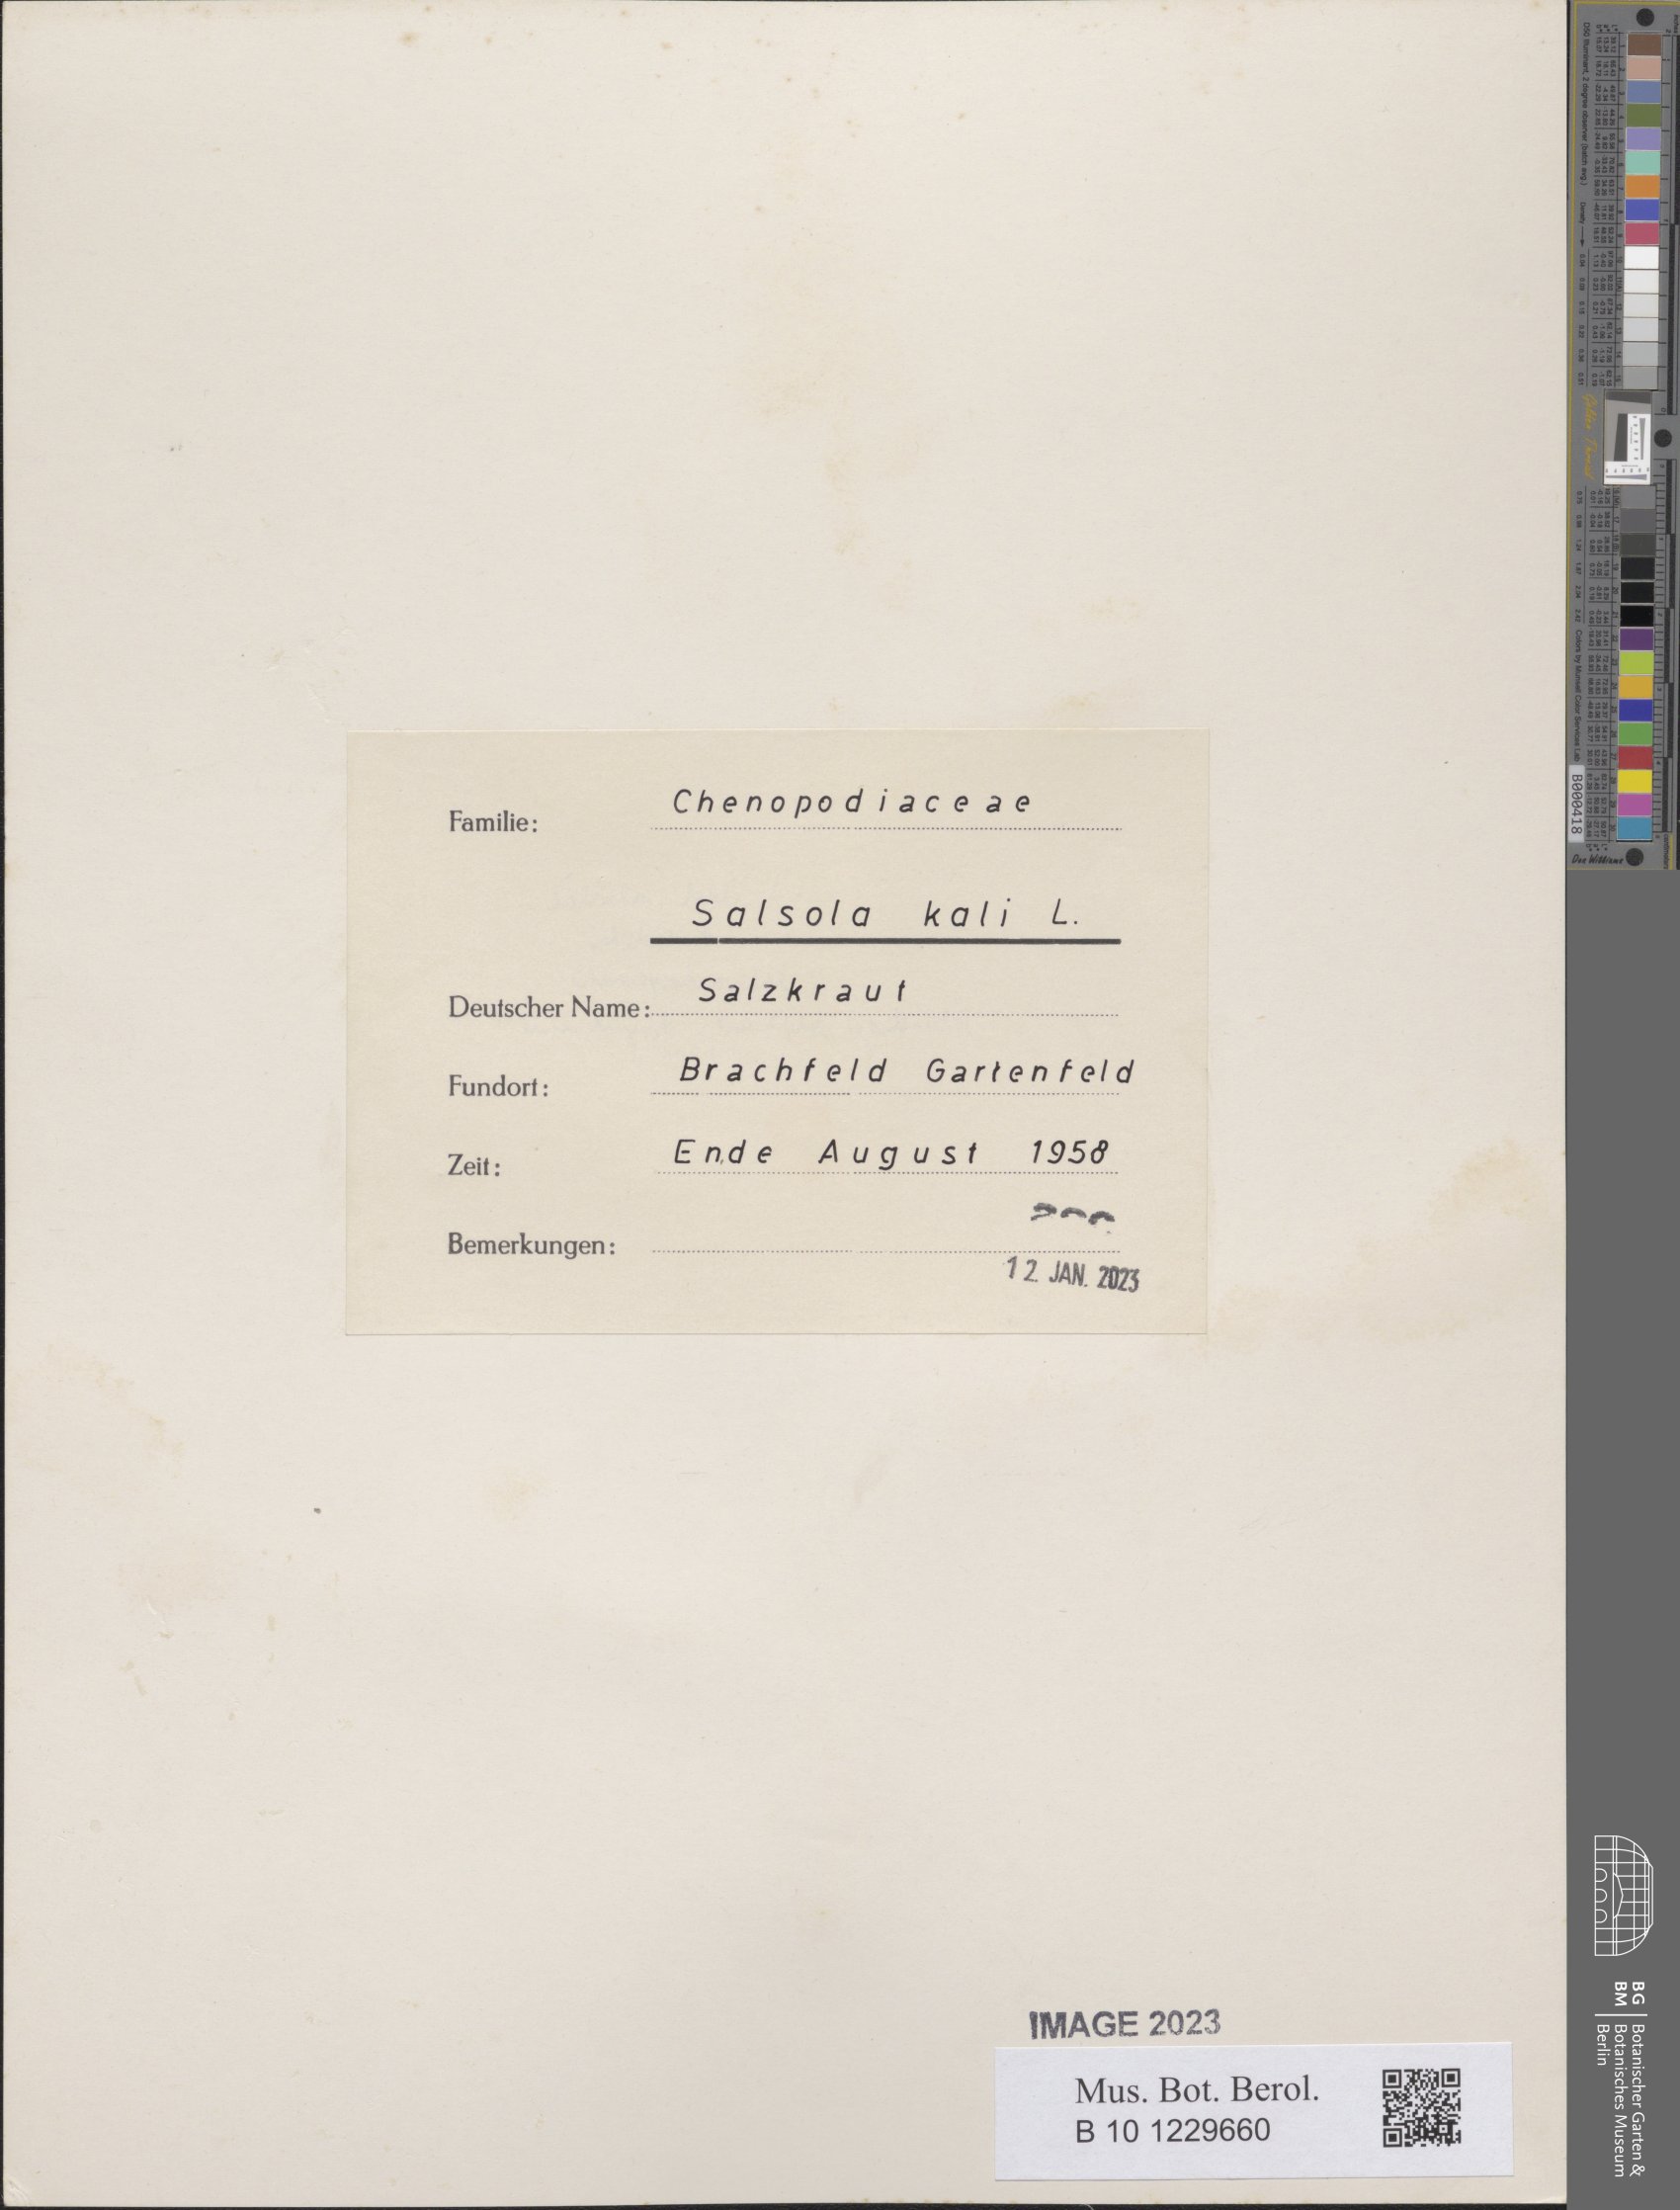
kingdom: Plantae
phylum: Tracheophyta
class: Magnoliopsida
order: Caryophyllales
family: Amaranthaceae
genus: Salsola
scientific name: Salsola kali
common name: Saltwort
